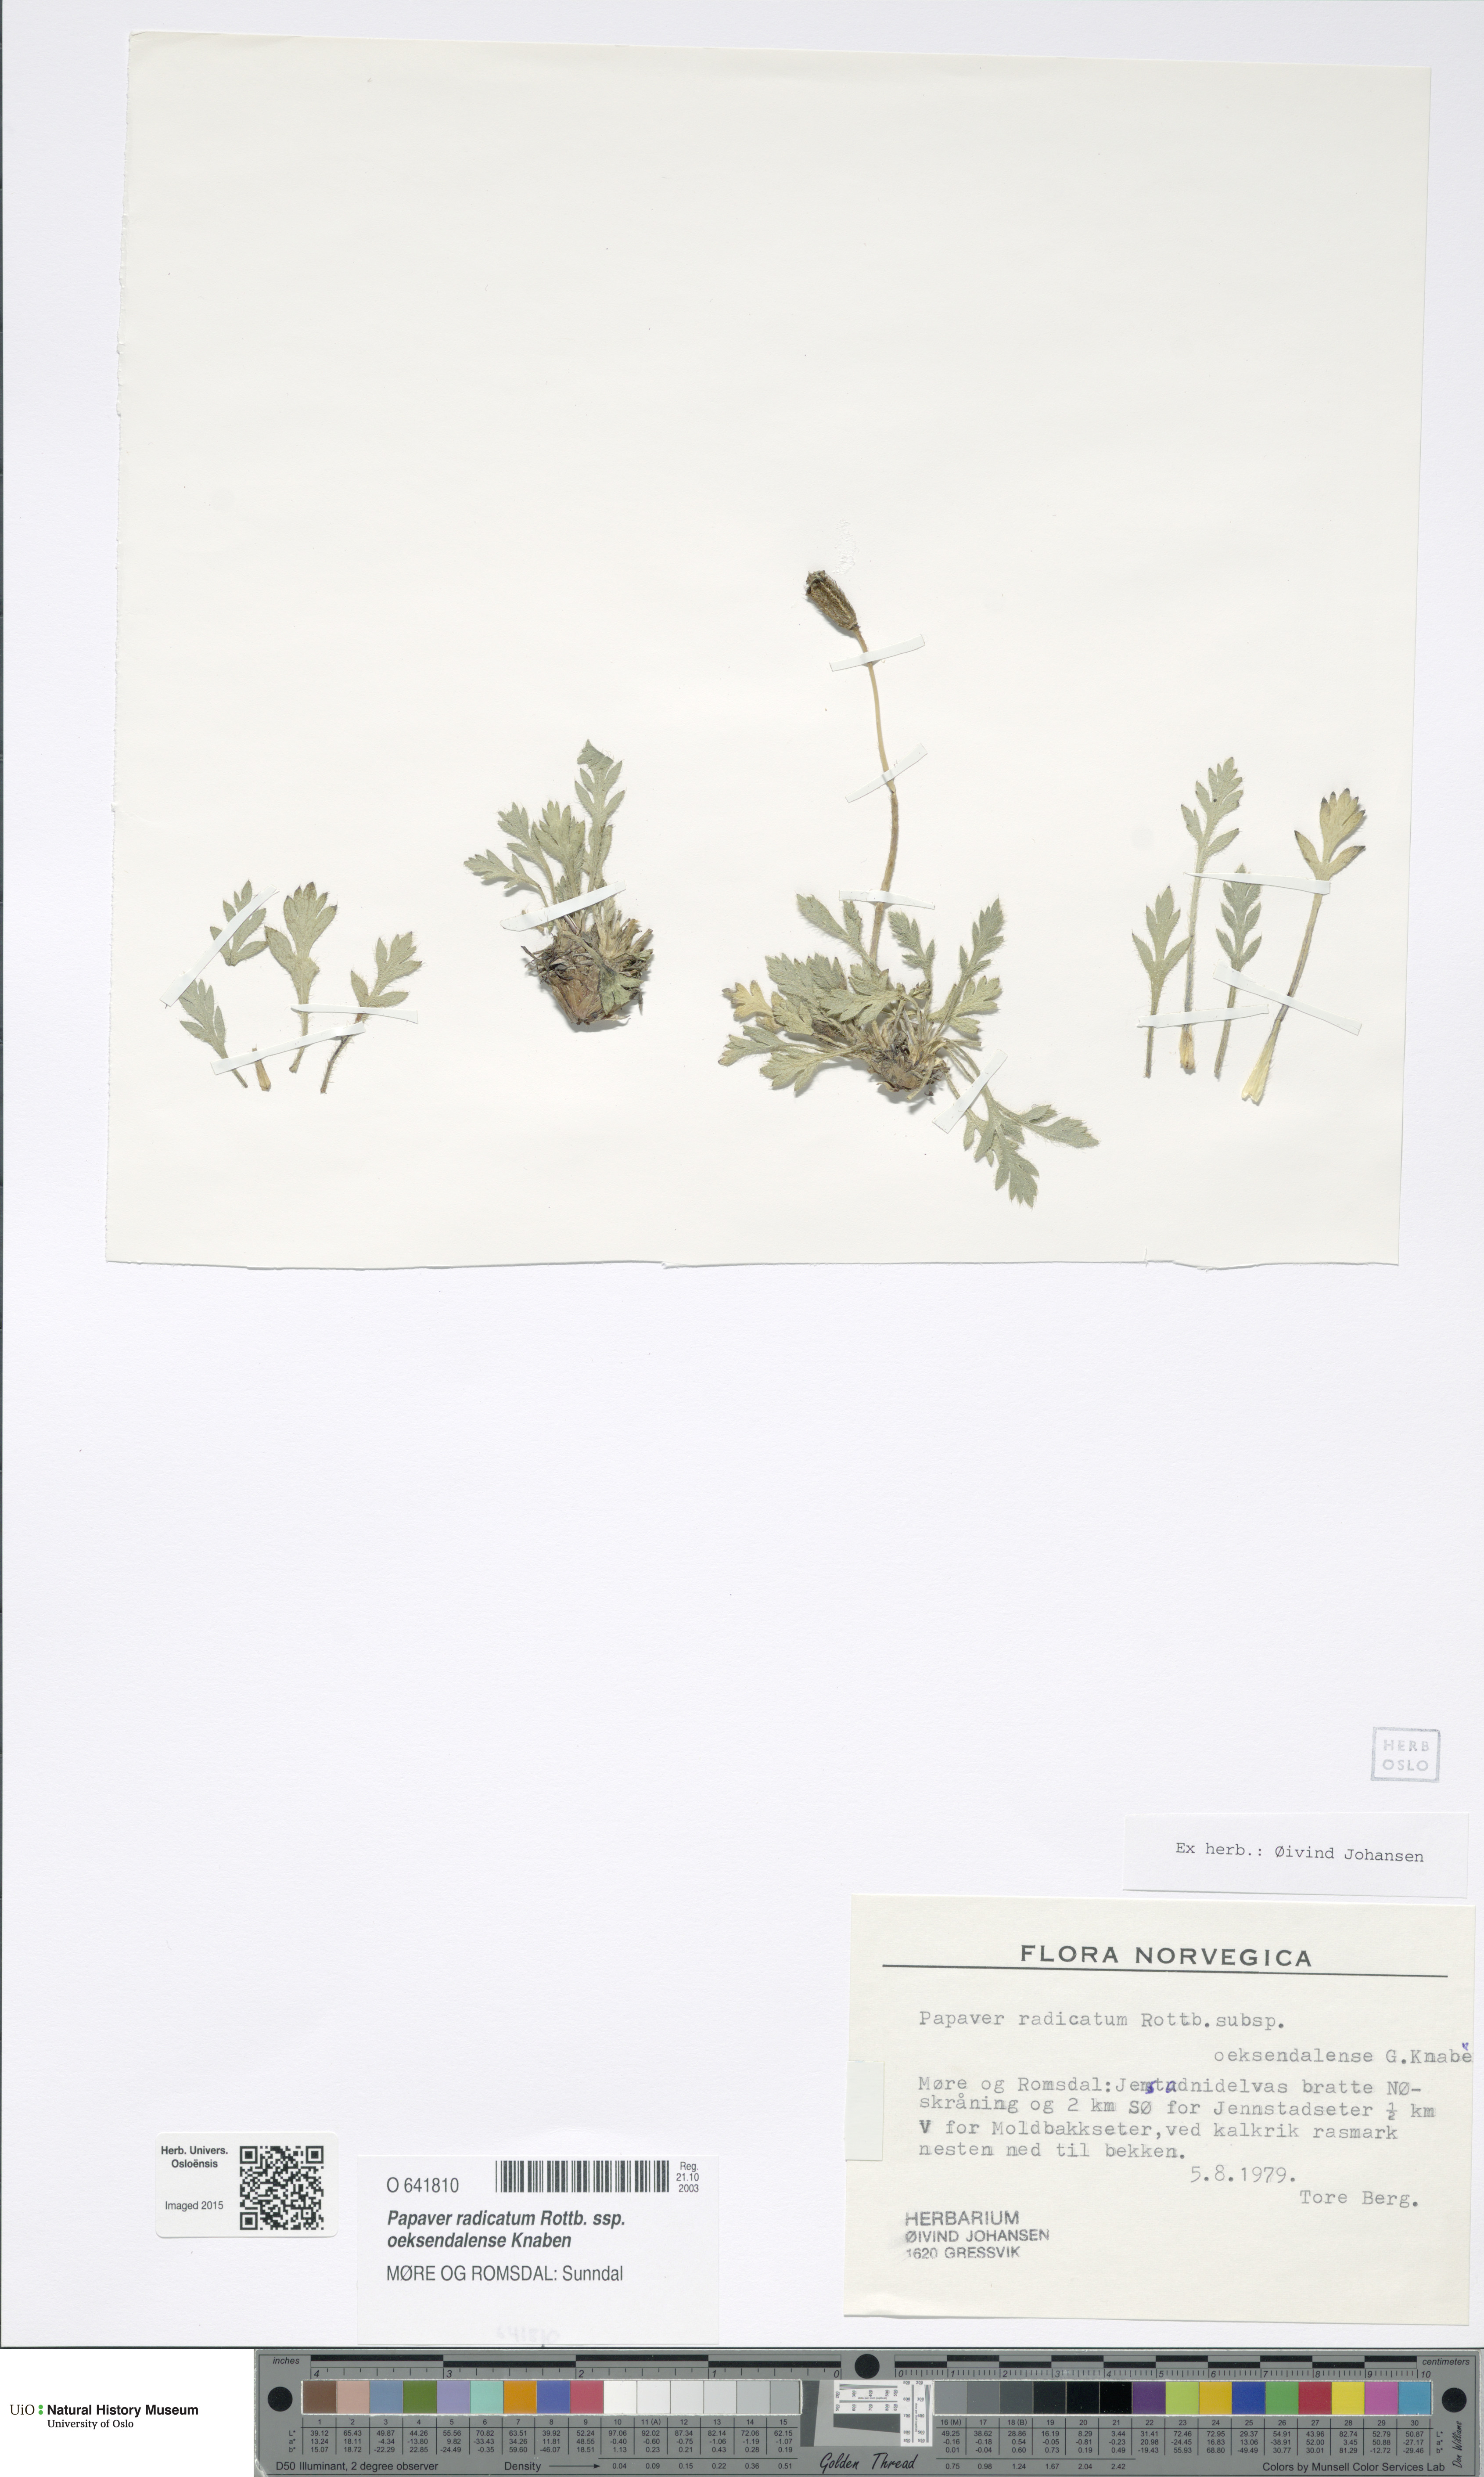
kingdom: Plantae
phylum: Tracheophyta
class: Magnoliopsida
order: Ranunculales
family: Papaveraceae
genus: Papaver
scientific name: Papaver radicatum
